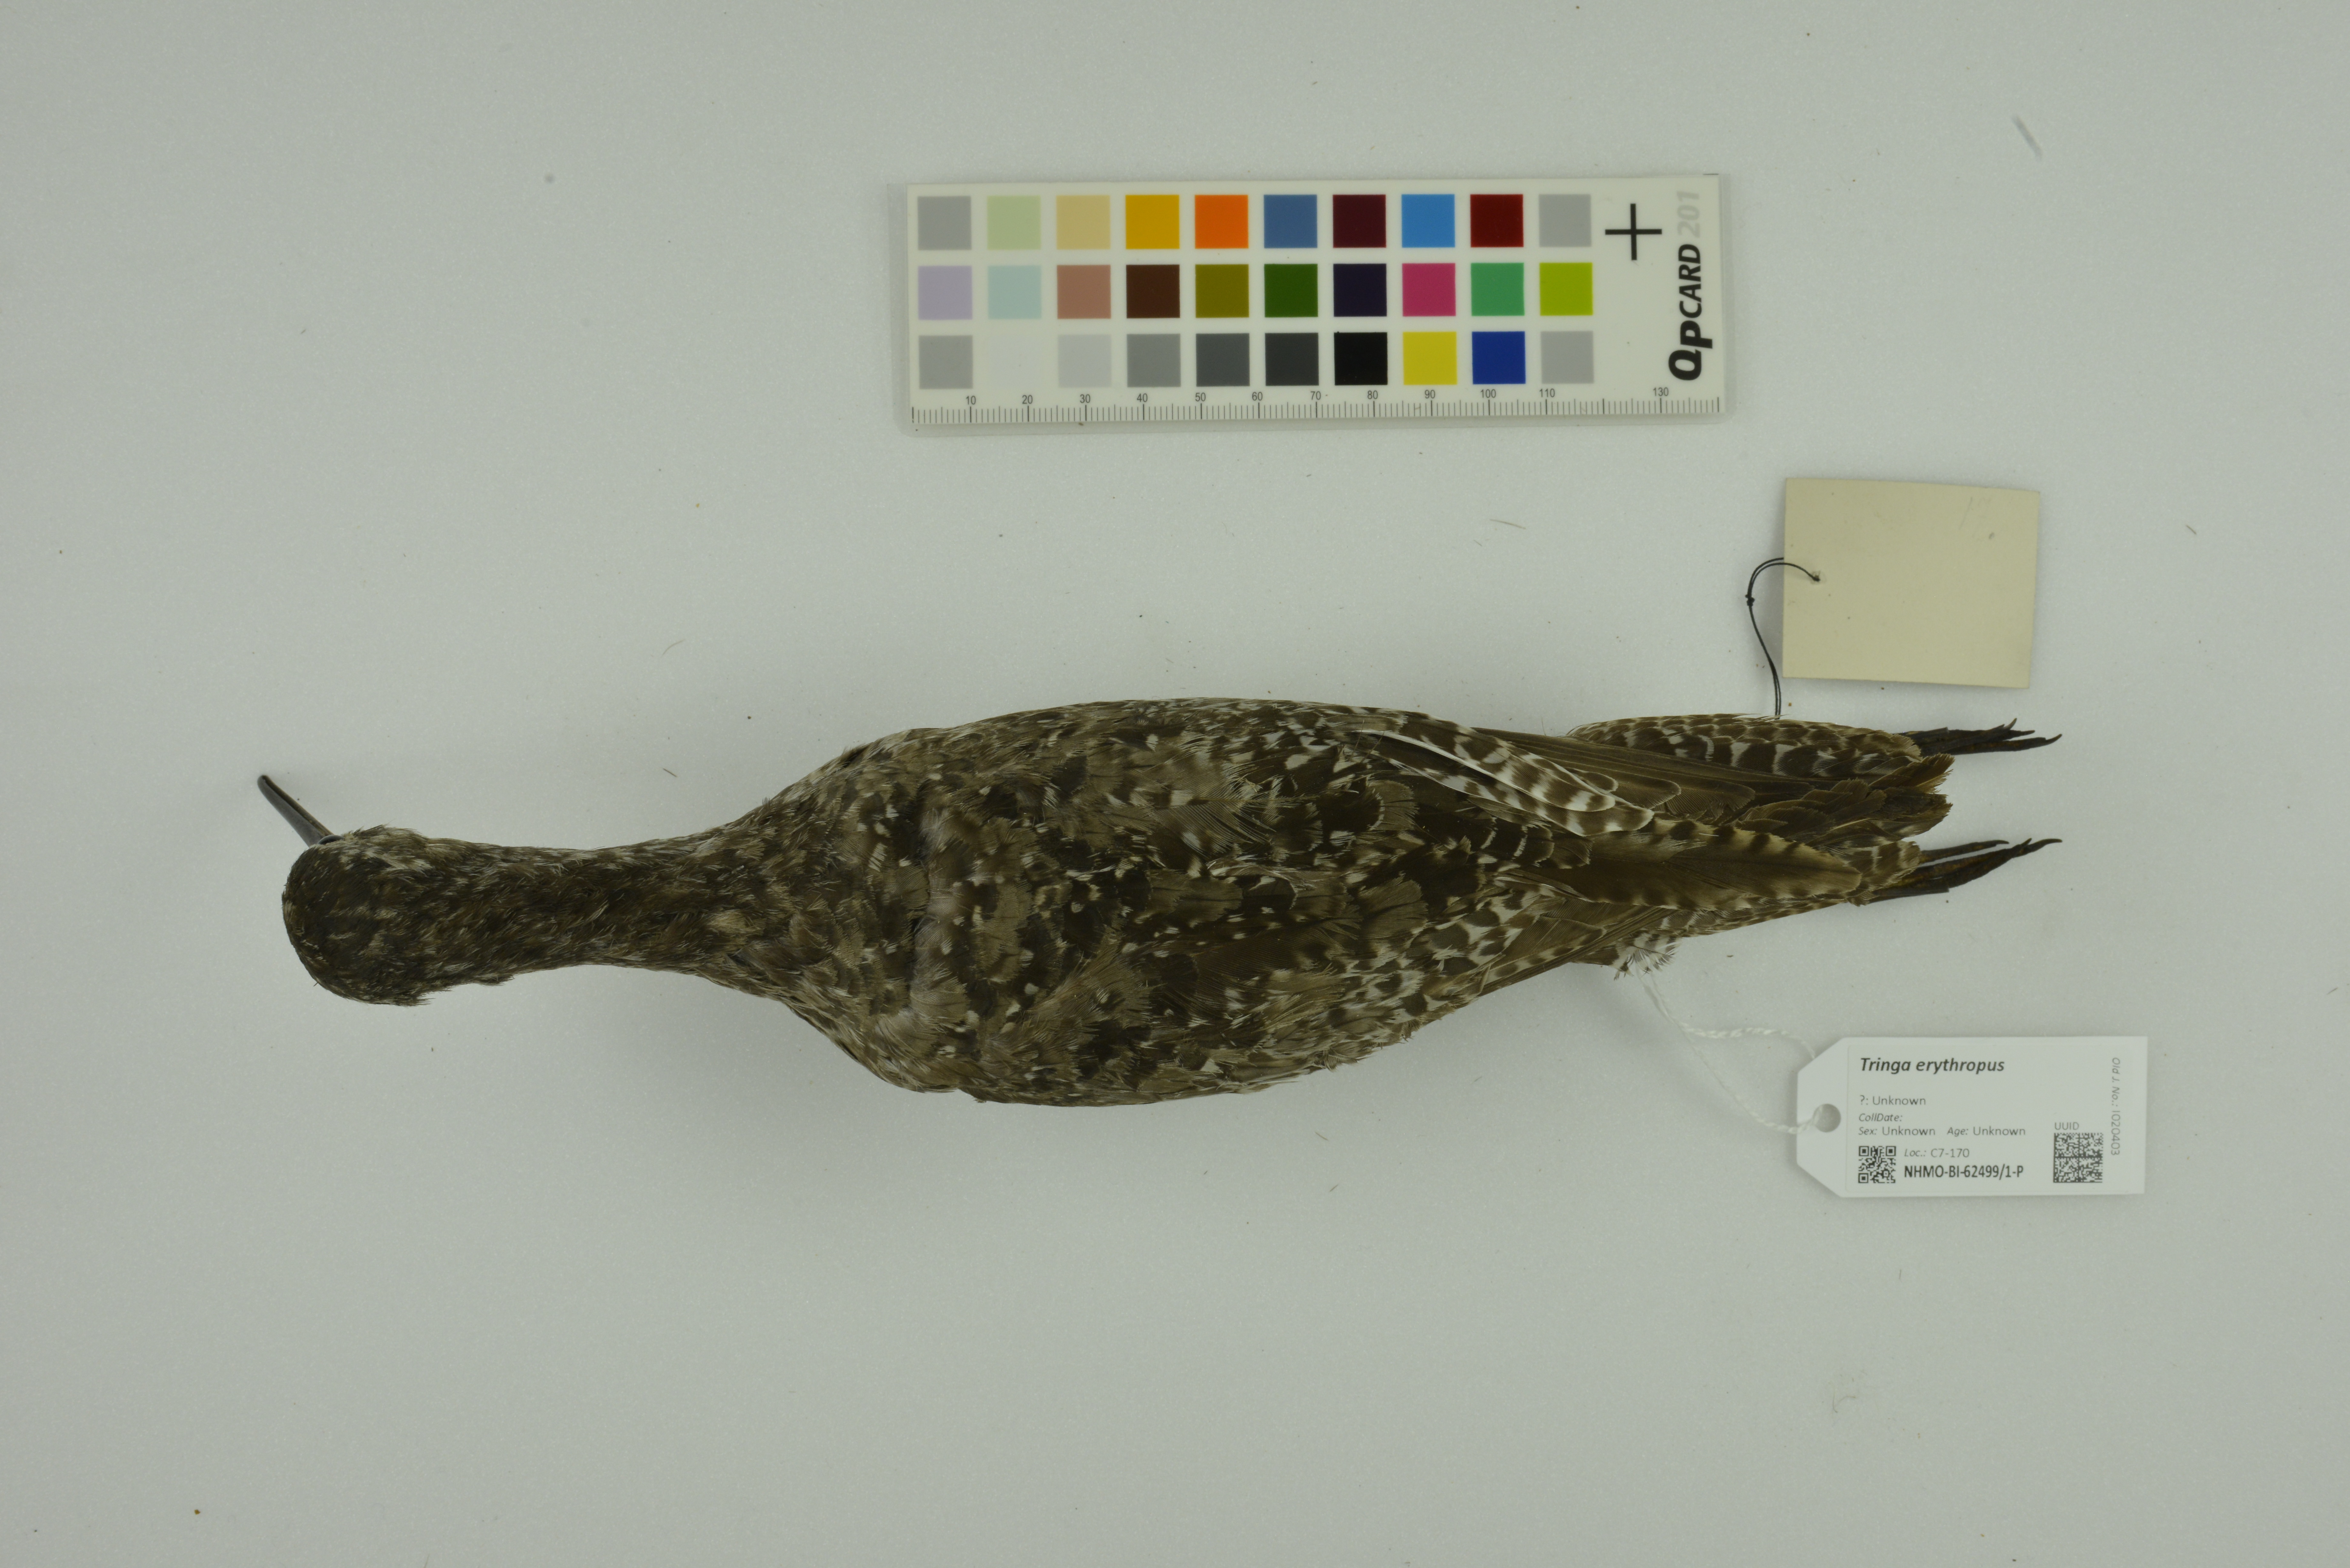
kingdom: Animalia
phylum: Chordata
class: Aves
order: Charadriiformes
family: Scolopacidae
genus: Tringa
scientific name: Tringa erythropus
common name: Spotted redshank
